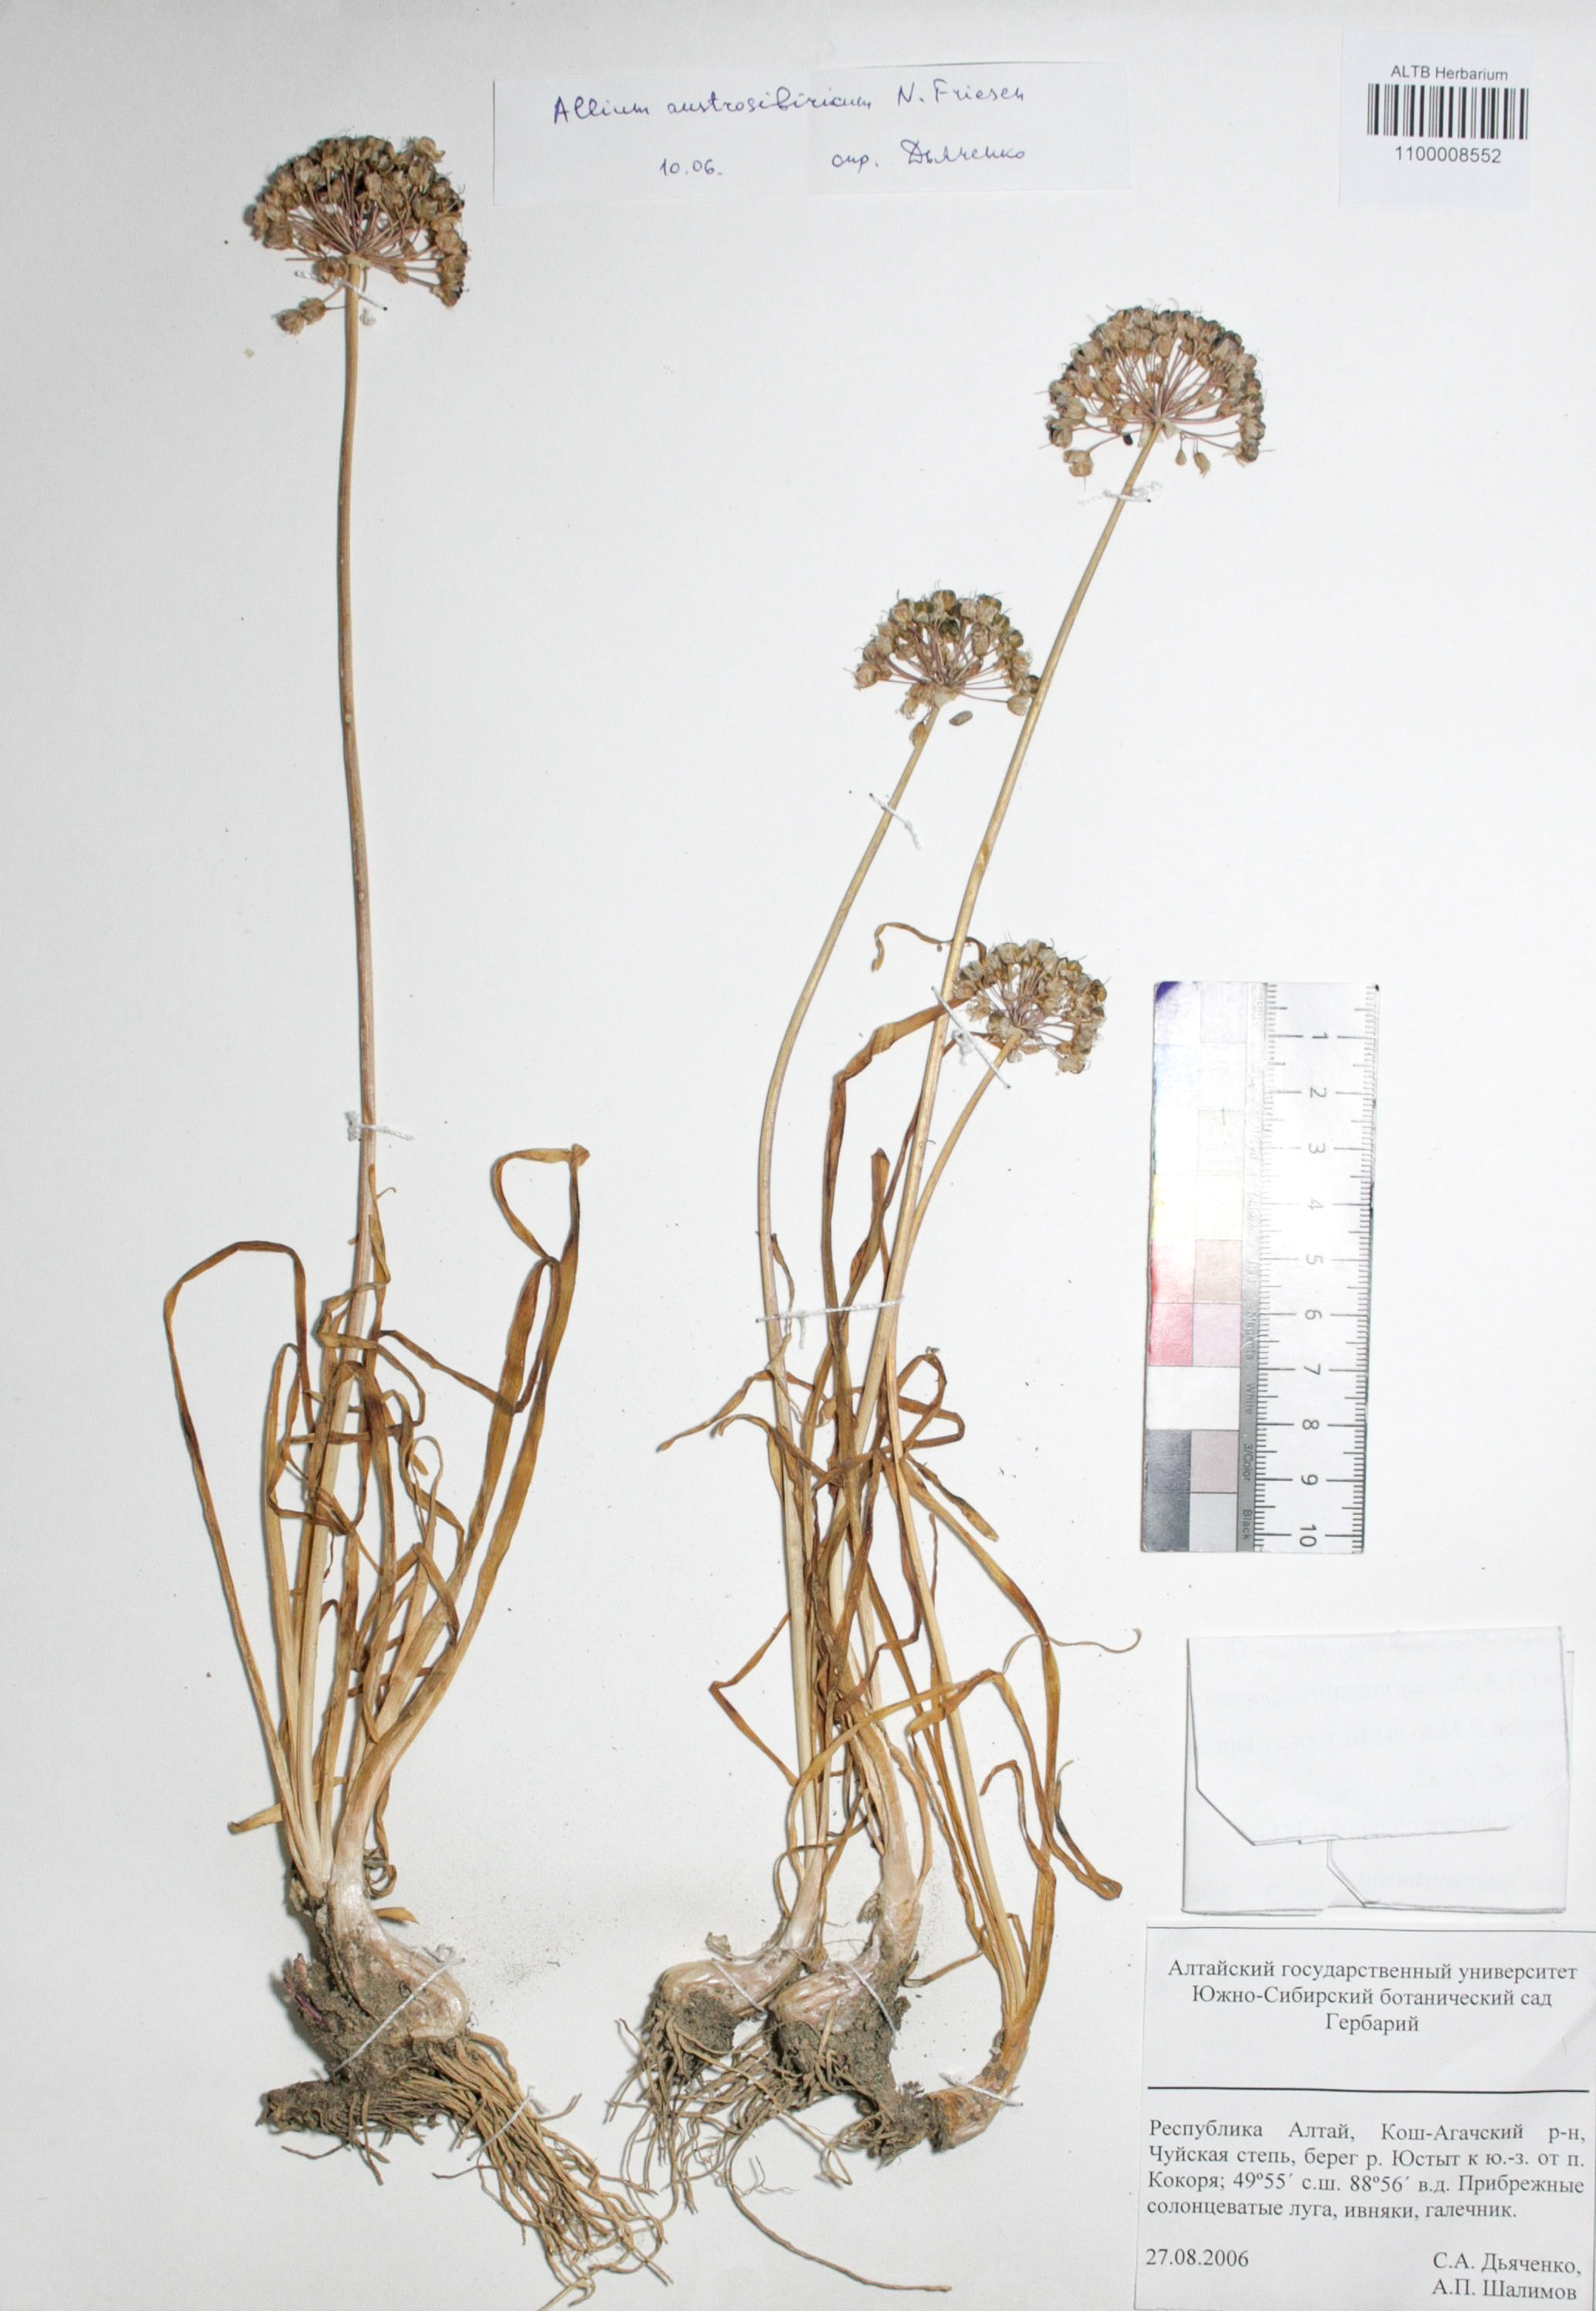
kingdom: Plantae
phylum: Tracheophyta
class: Liliopsida
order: Asparagales
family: Amaryllidaceae
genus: Allium
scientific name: Allium austrosibiricum
